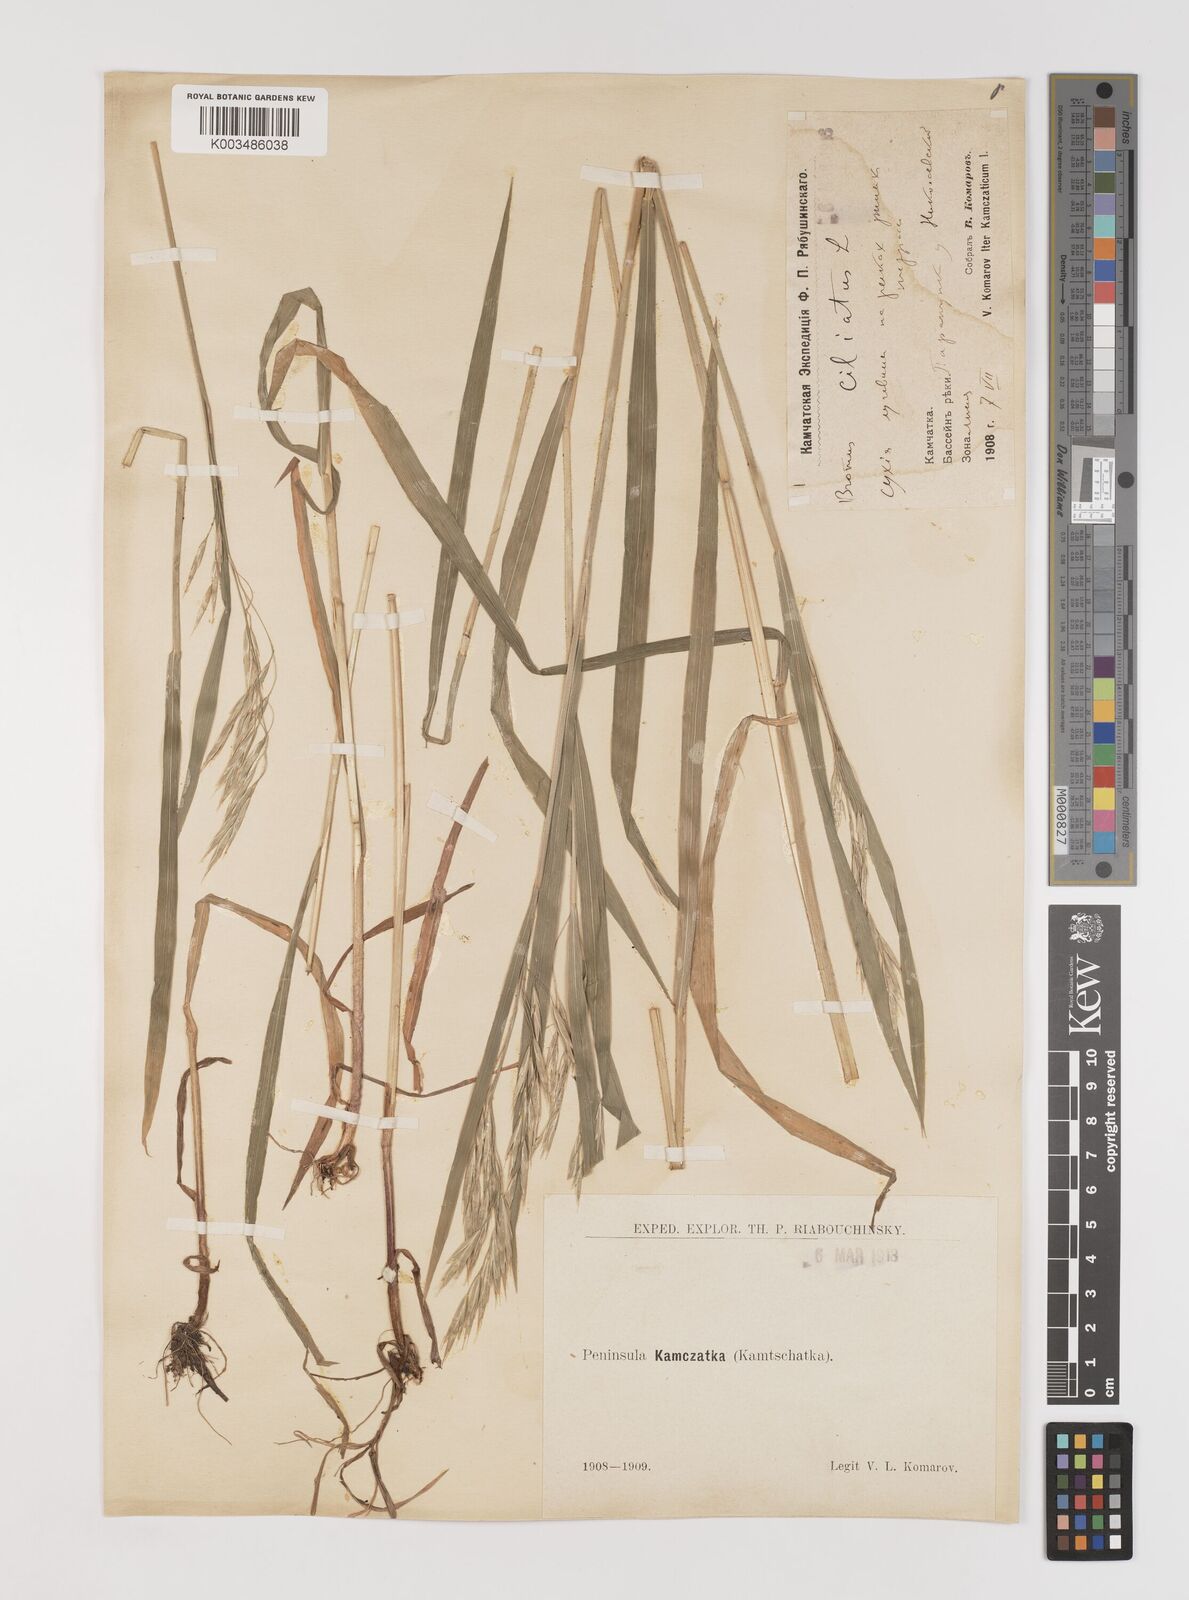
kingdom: Plantae
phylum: Tracheophyta
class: Liliopsida
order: Poales
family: Poaceae
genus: Bromus
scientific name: Bromus inermis
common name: Smooth brome
